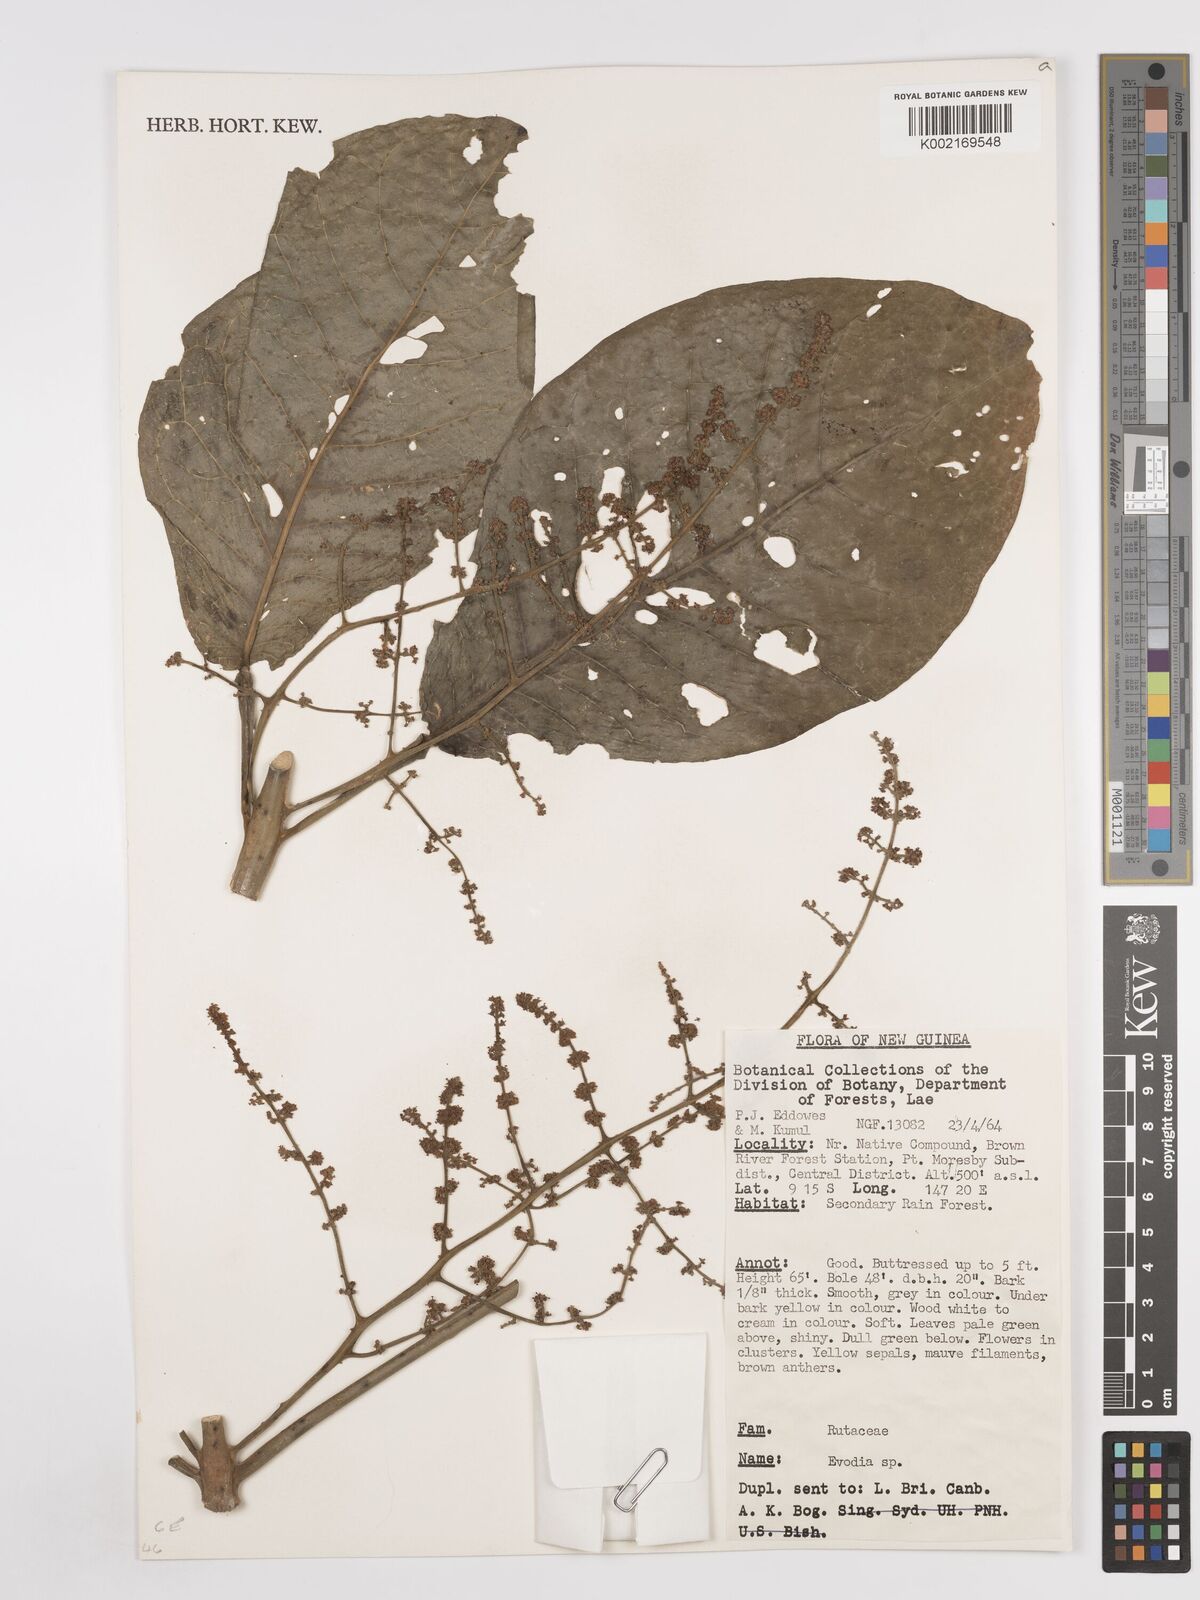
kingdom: Plantae
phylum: Tracheophyta
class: Magnoliopsida
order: Sapindales
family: Rutaceae
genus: Euodia
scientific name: Euodia
